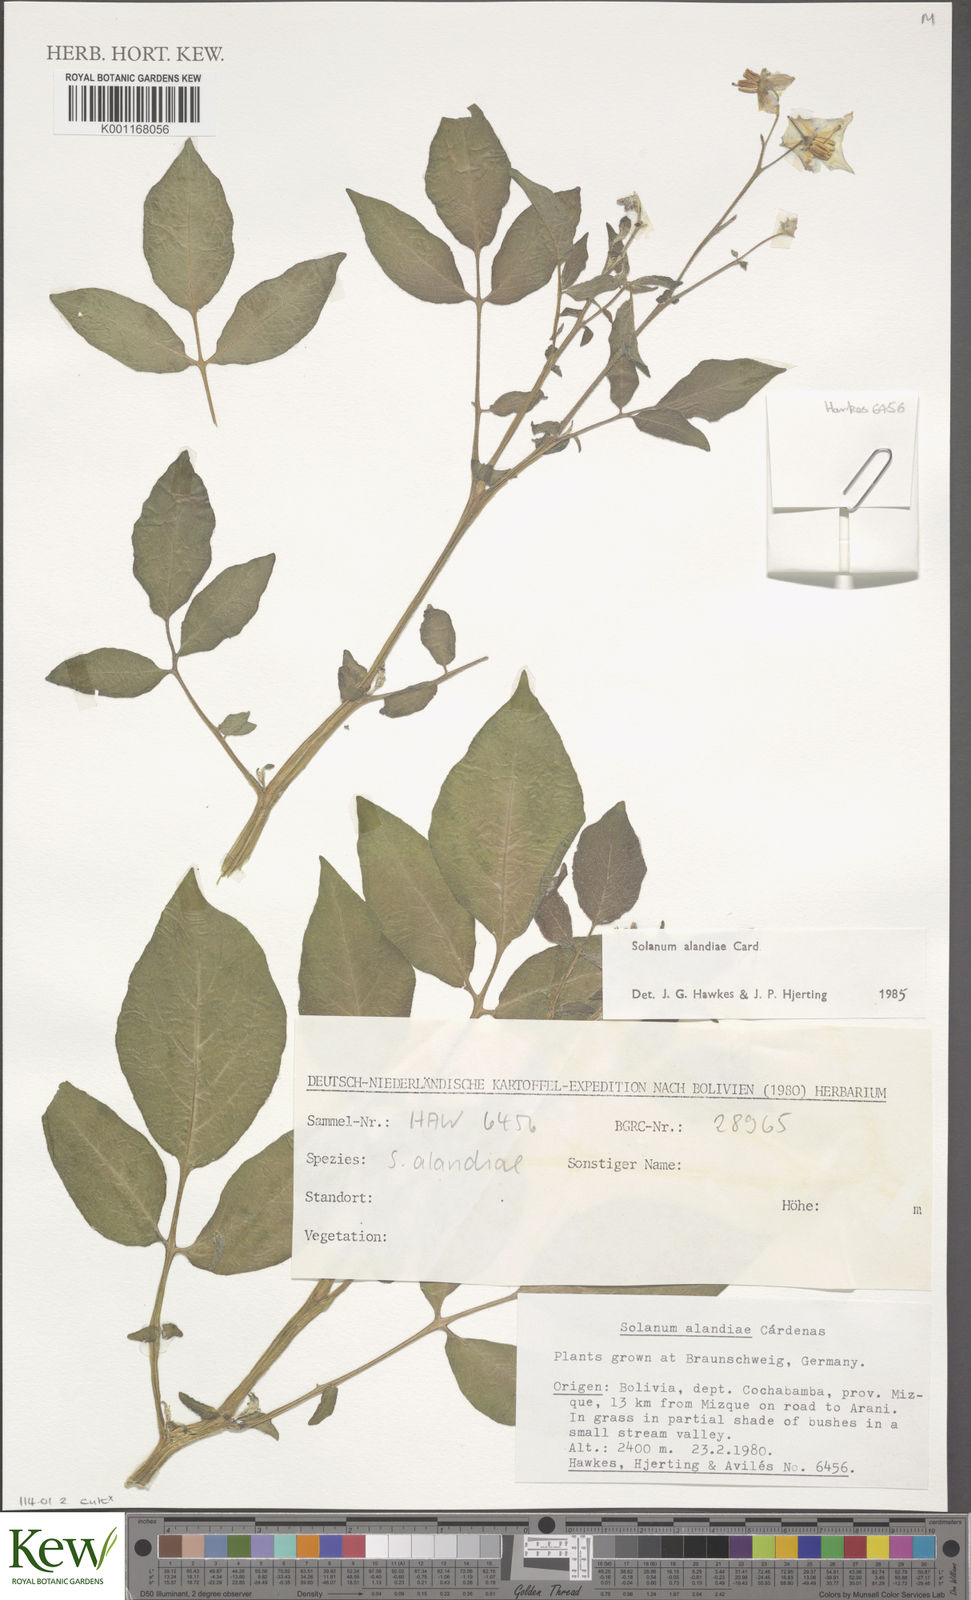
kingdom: Plantae
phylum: Tracheophyta
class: Magnoliopsida
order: Solanales
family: Solanaceae
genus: Solanum
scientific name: Solanum
